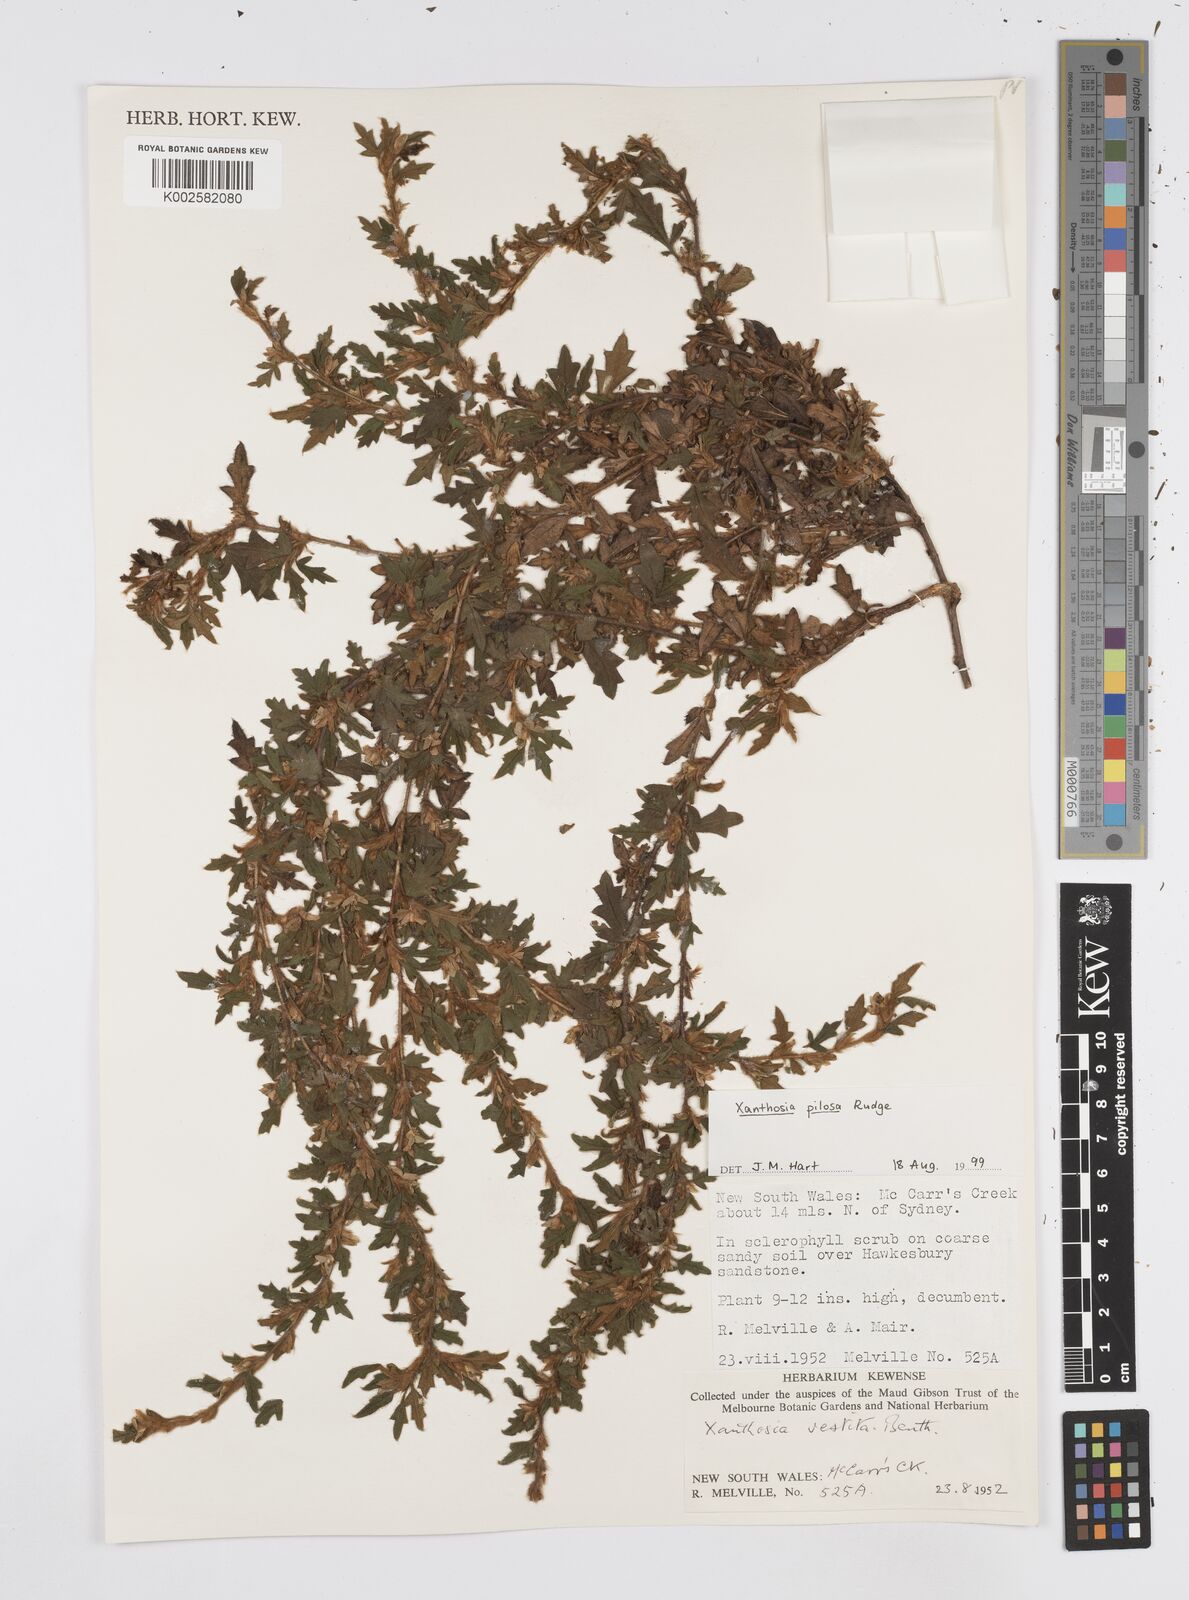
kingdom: Plantae
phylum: Tracheophyta
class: Magnoliopsida
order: Apiales
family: Apiaceae
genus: Xanthosia
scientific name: Xanthosia pilosa
